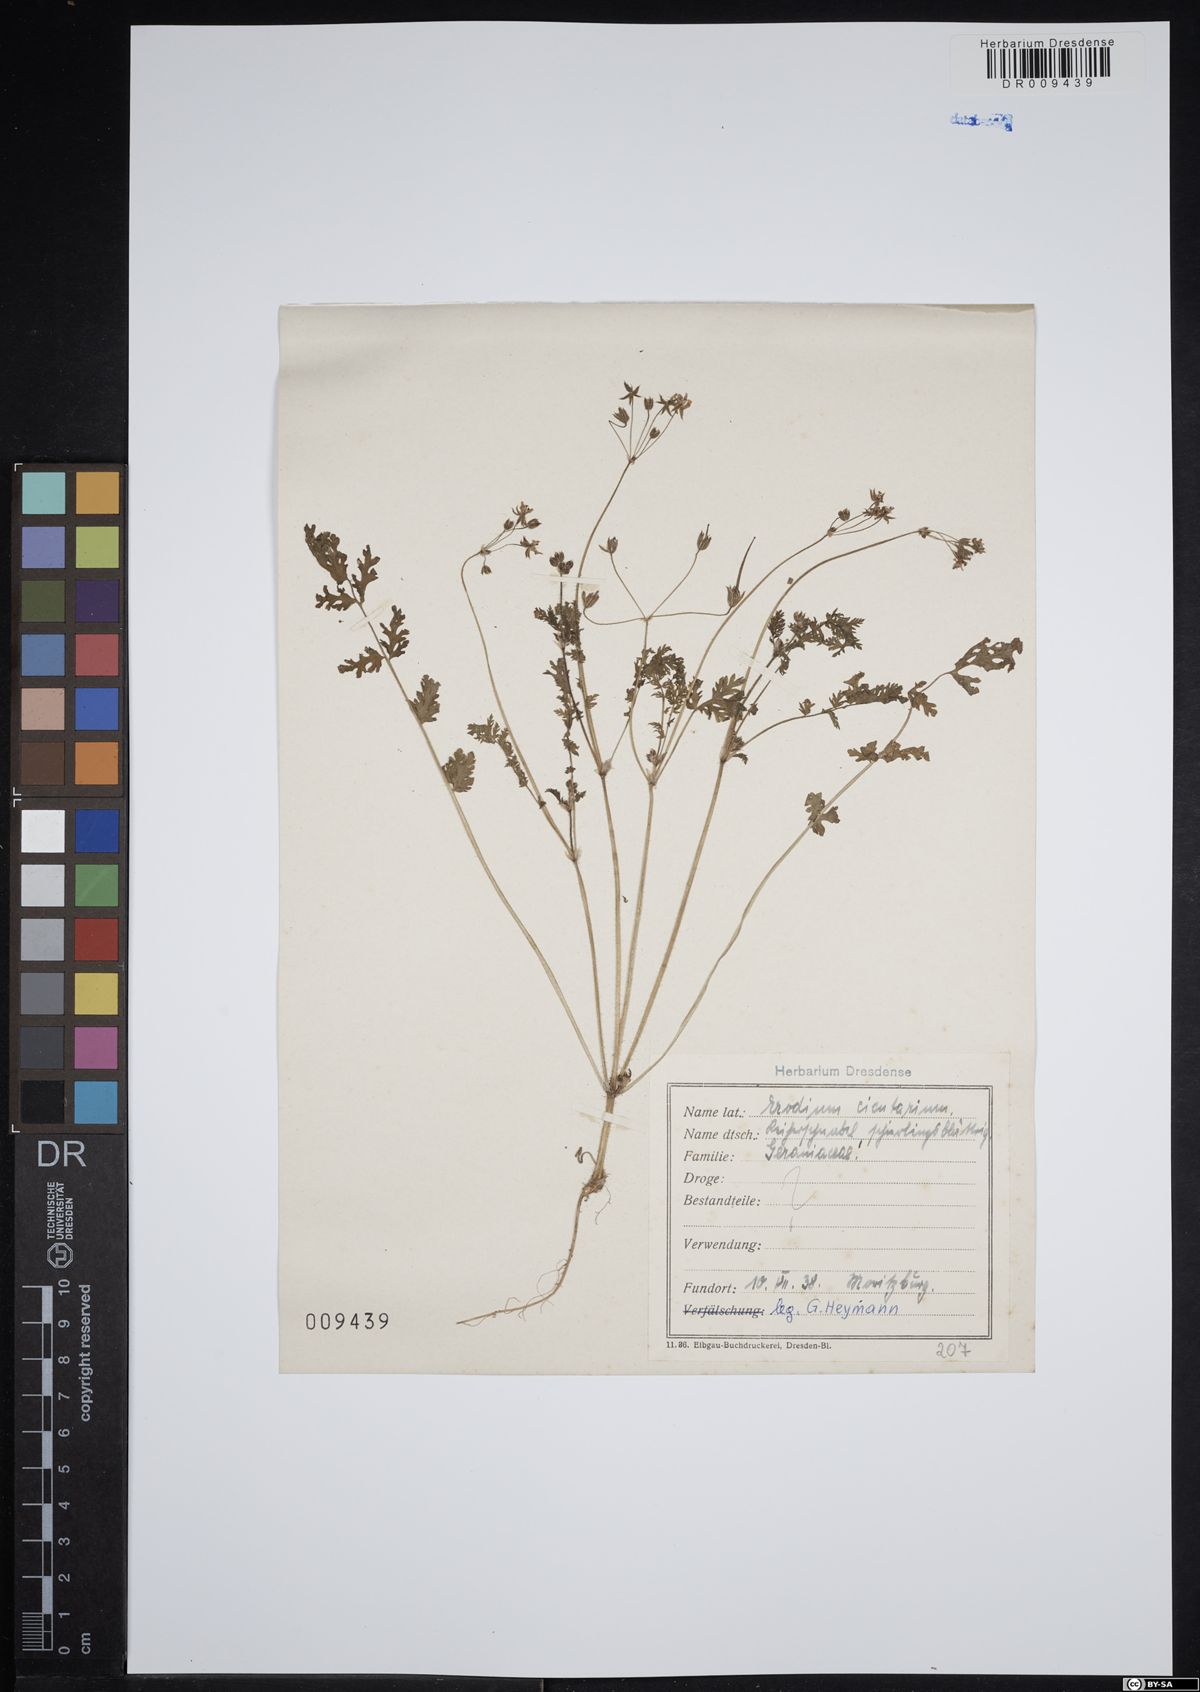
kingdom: Plantae
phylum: Tracheophyta
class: Magnoliopsida
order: Geraniales
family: Geraniaceae
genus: Erodium
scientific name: Erodium cicutarium
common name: Common stork's-bill
